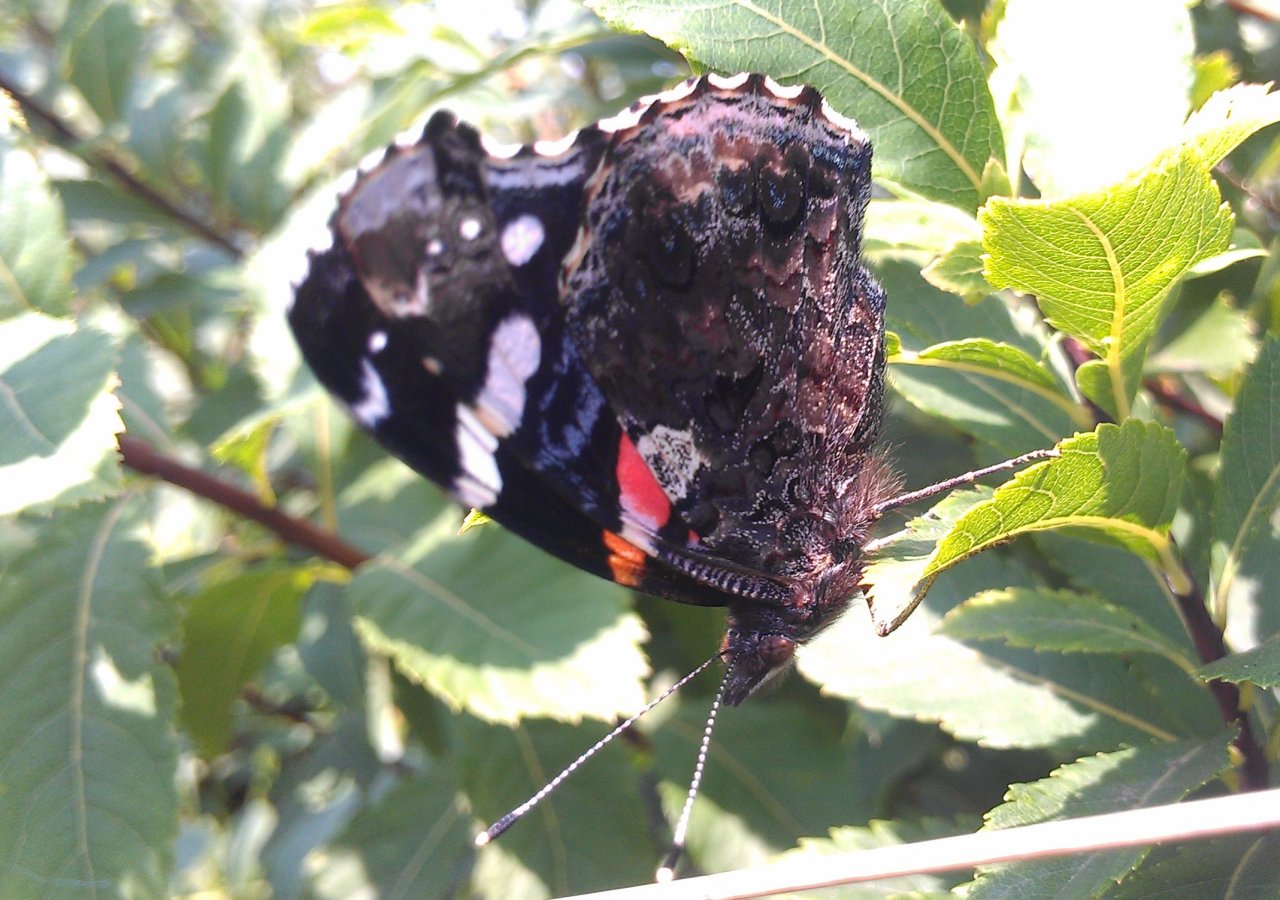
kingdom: Animalia
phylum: Arthropoda
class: Insecta
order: Lepidoptera
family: Nymphalidae
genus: Vanessa
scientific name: Vanessa atalanta
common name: Red Admiral
